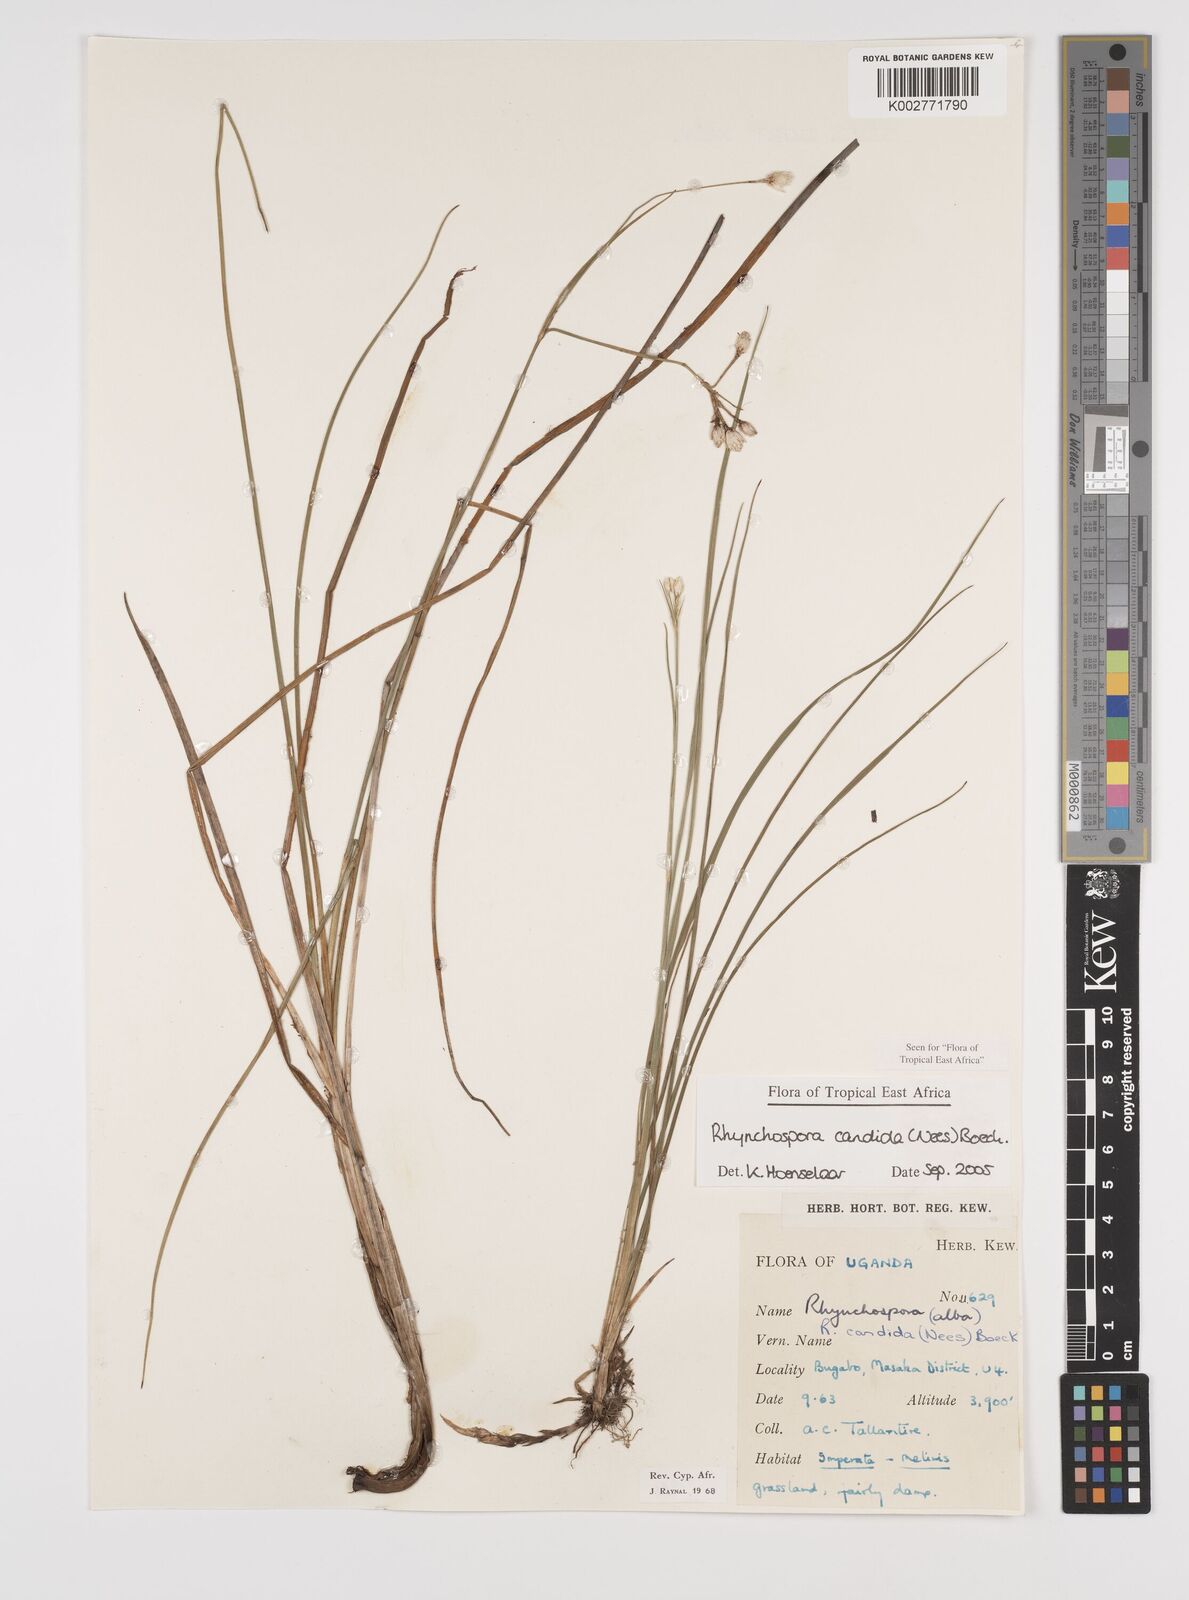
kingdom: Plantae
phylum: Tracheophyta
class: Liliopsida
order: Poales
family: Cyperaceae
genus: Rhynchospora
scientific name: Rhynchospora candida
